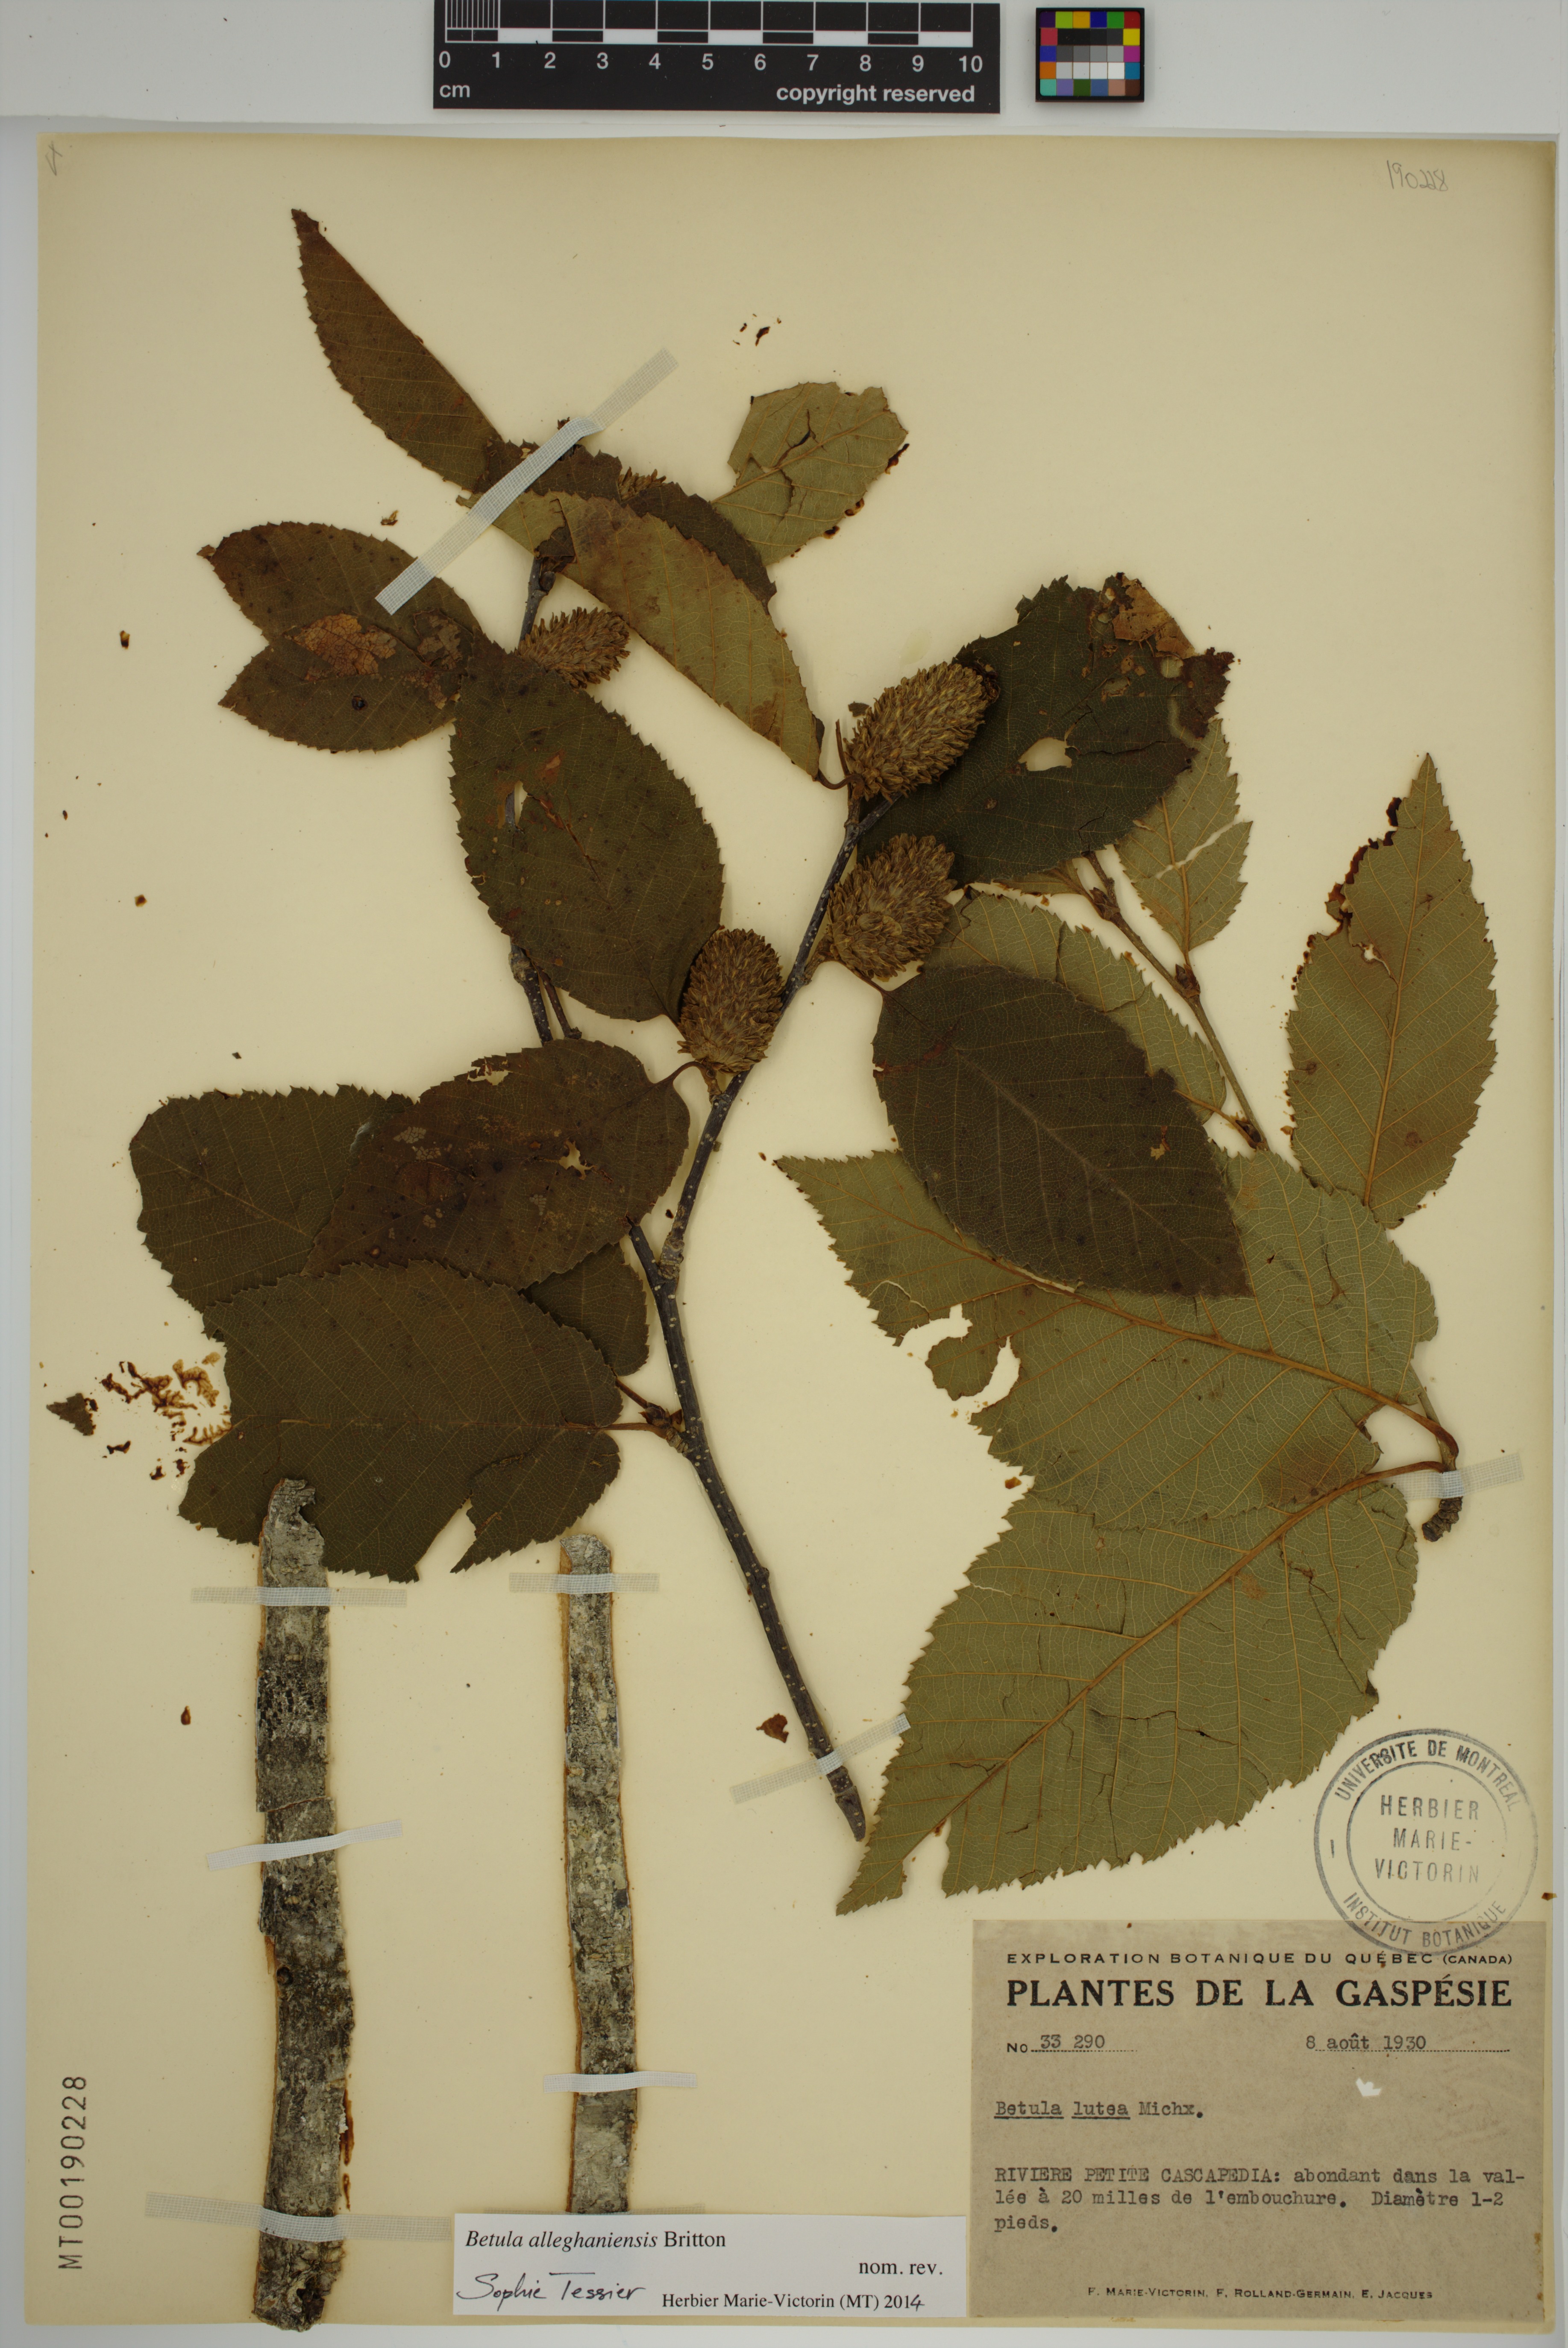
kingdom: Plantae
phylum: Tracheophyta
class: Magnoliopsida
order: Fagales
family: Betulaceae
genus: Betula
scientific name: Betula alleghaniensis
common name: Yellow birch
